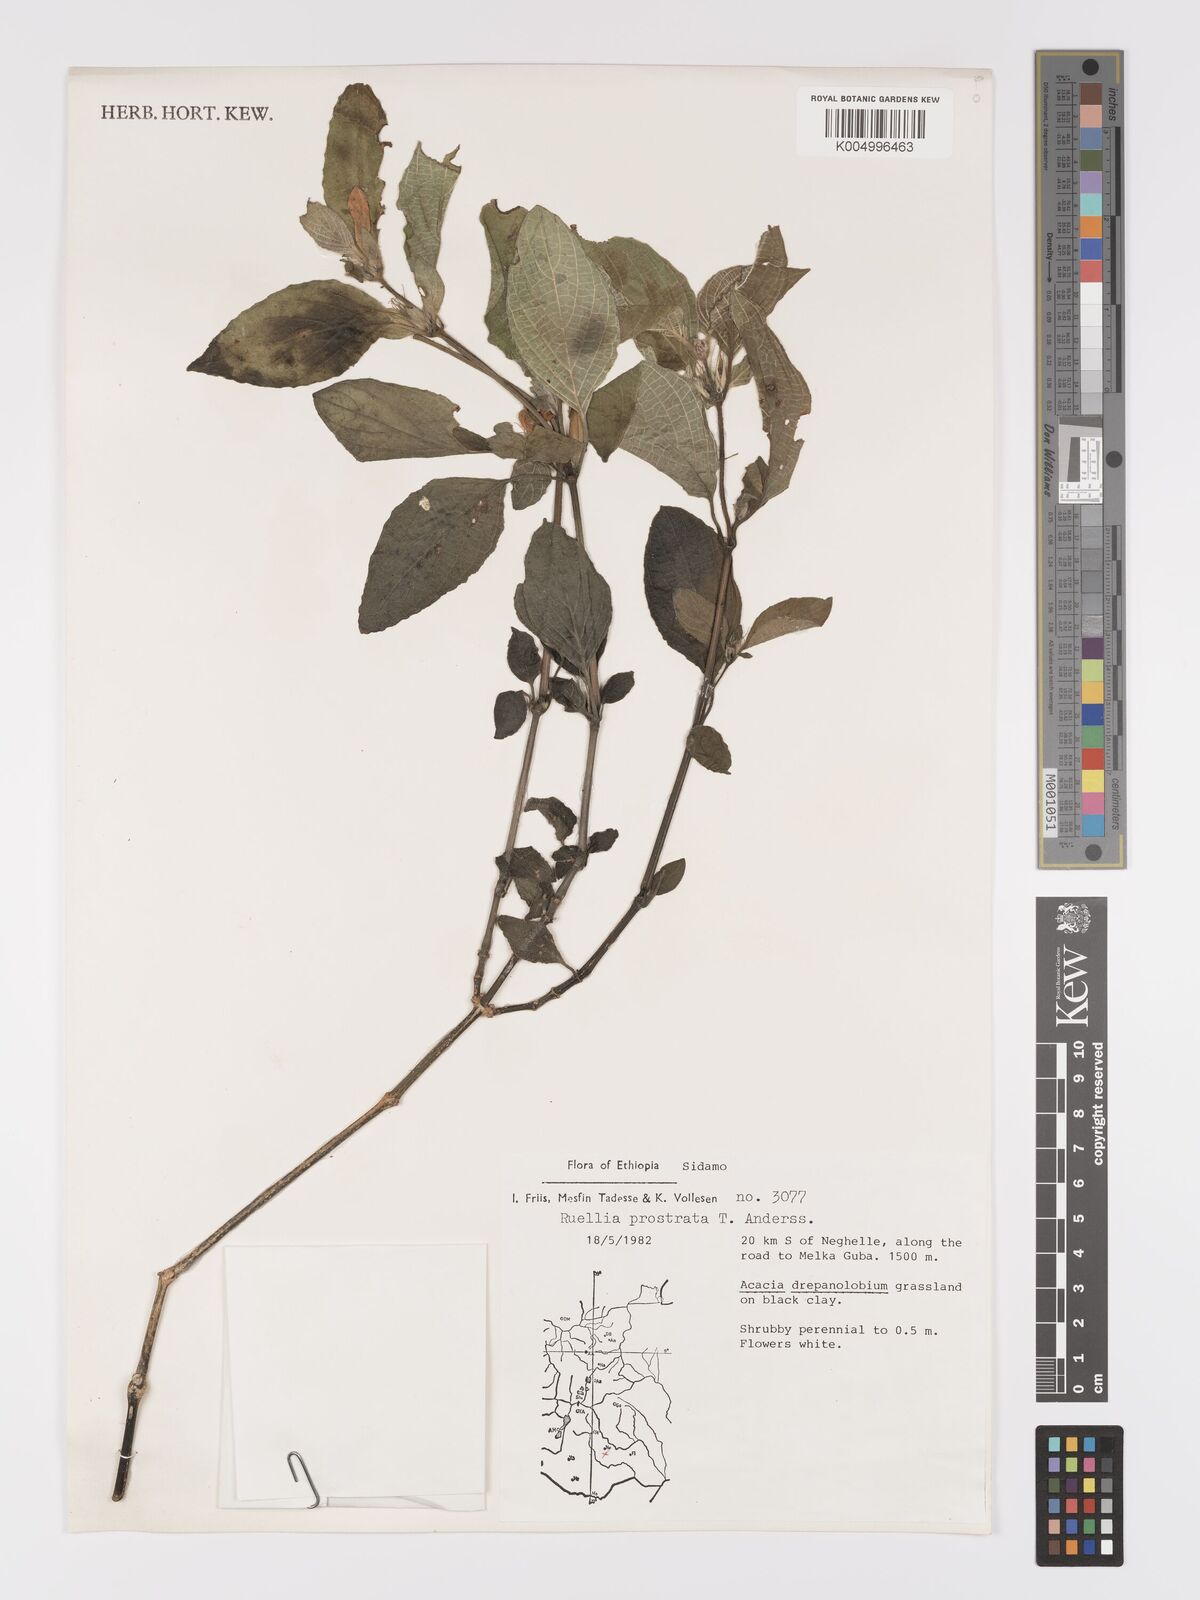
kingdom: Plantae
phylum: Tracheophyta
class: Magnoliopsida
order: Lamiales
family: Acanthaceae
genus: Ruellia
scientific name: Ruellia
